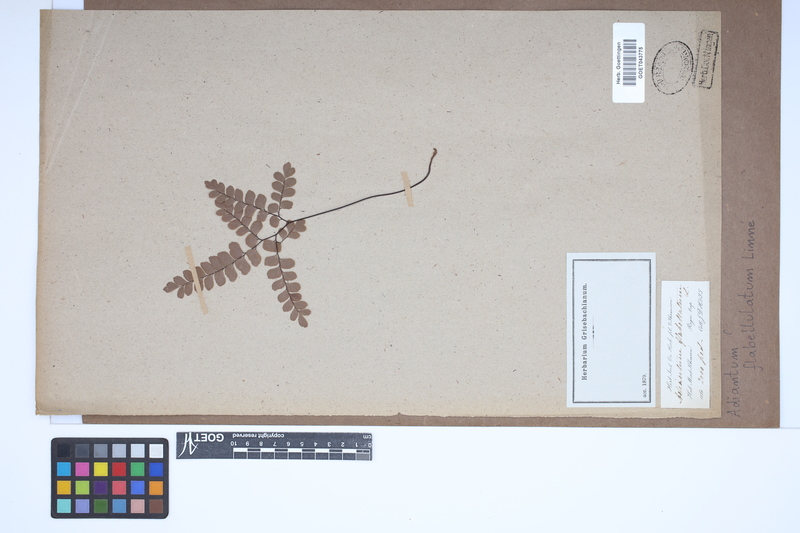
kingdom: Plantae
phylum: Tracheophyta
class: Polypodiopsida
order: Polypodiales
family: Pteridaceae
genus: Adiantum
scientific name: Adiantum flabellulatum
